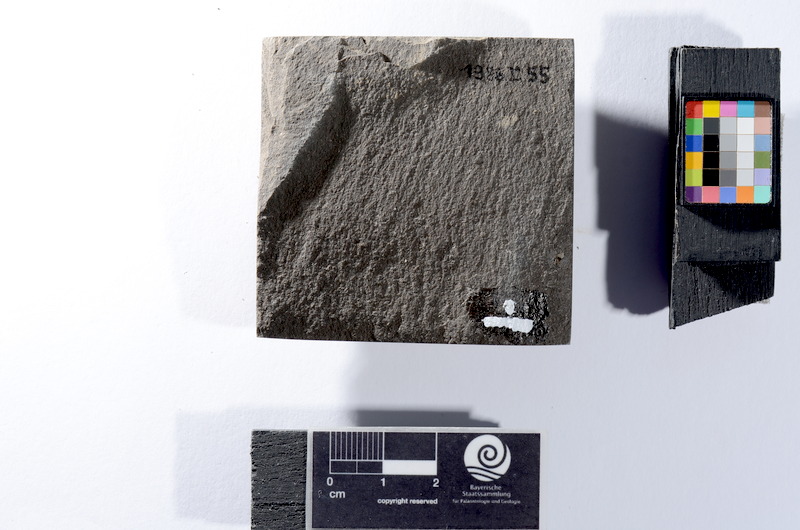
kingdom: Animalia
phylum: Chordata
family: Leptolepididae
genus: Leptolepis
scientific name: Leptolepis coryphaenoides
